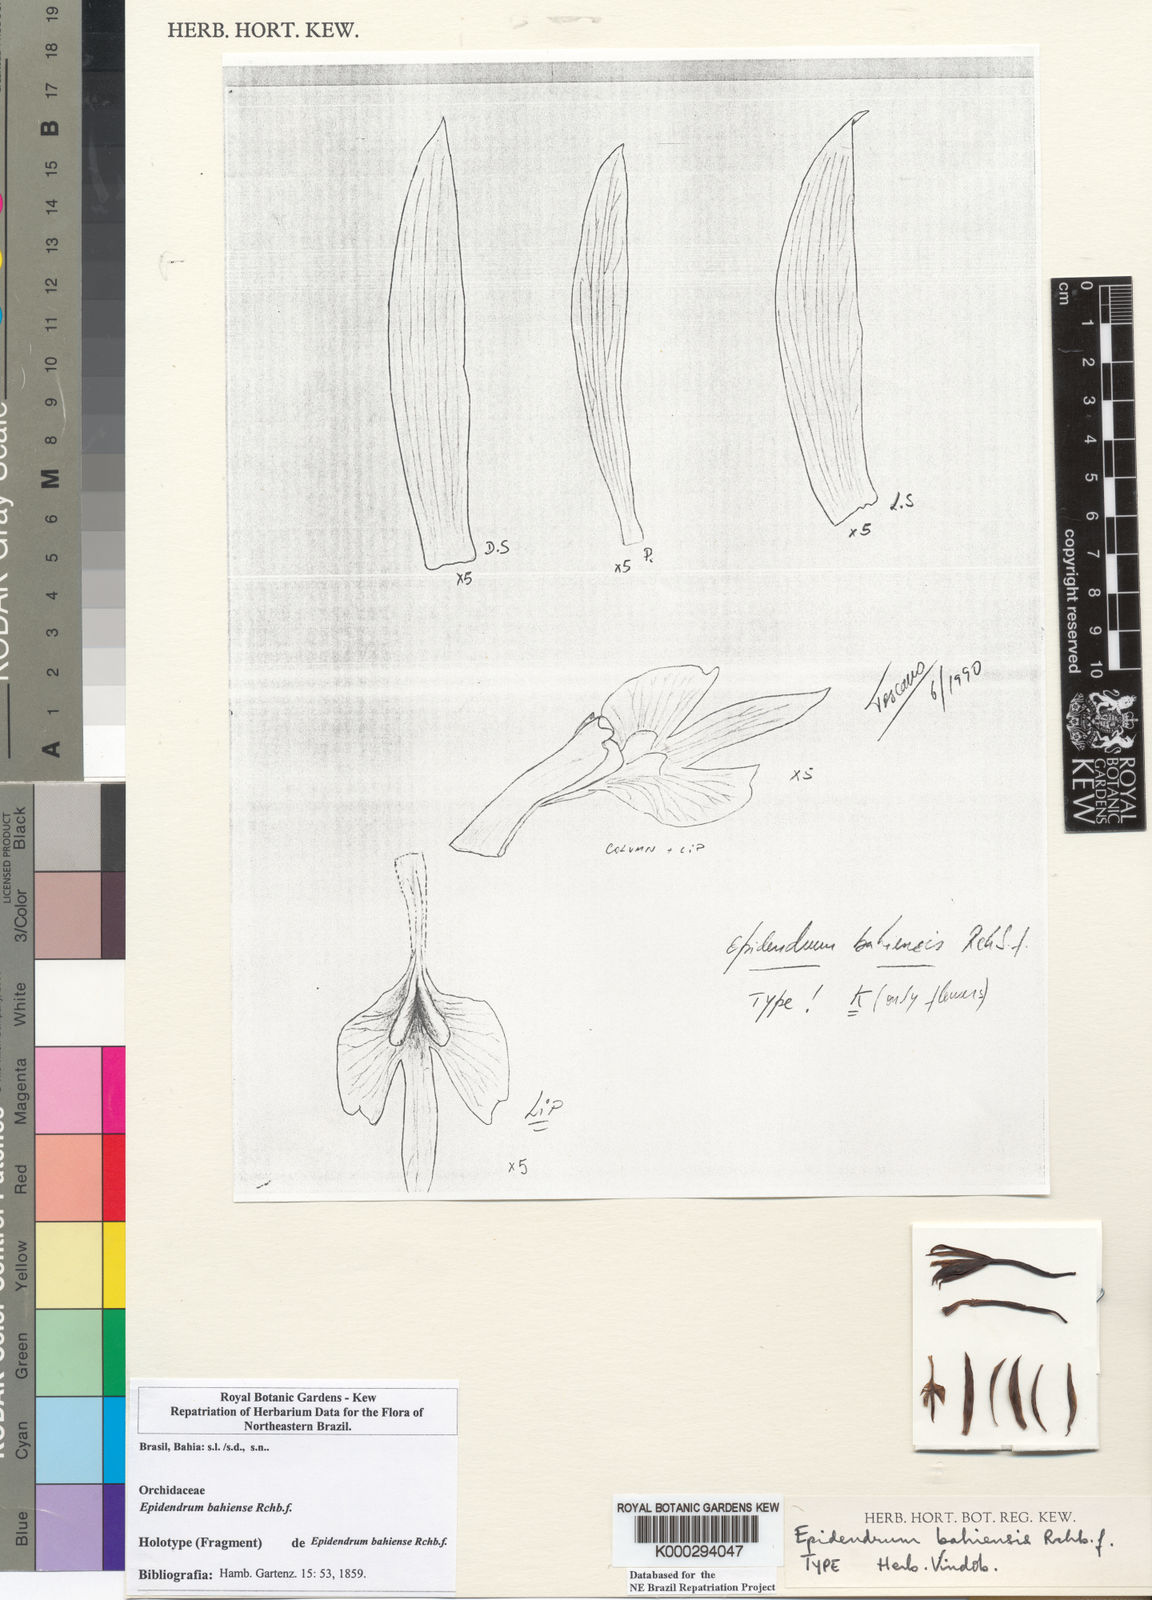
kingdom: Plantae
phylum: Tracheophyta
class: Liliopsida
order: Asparagales
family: Orchidaceae
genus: Epidendrum
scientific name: Epidendrum nocturnum
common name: Night scented orchid
